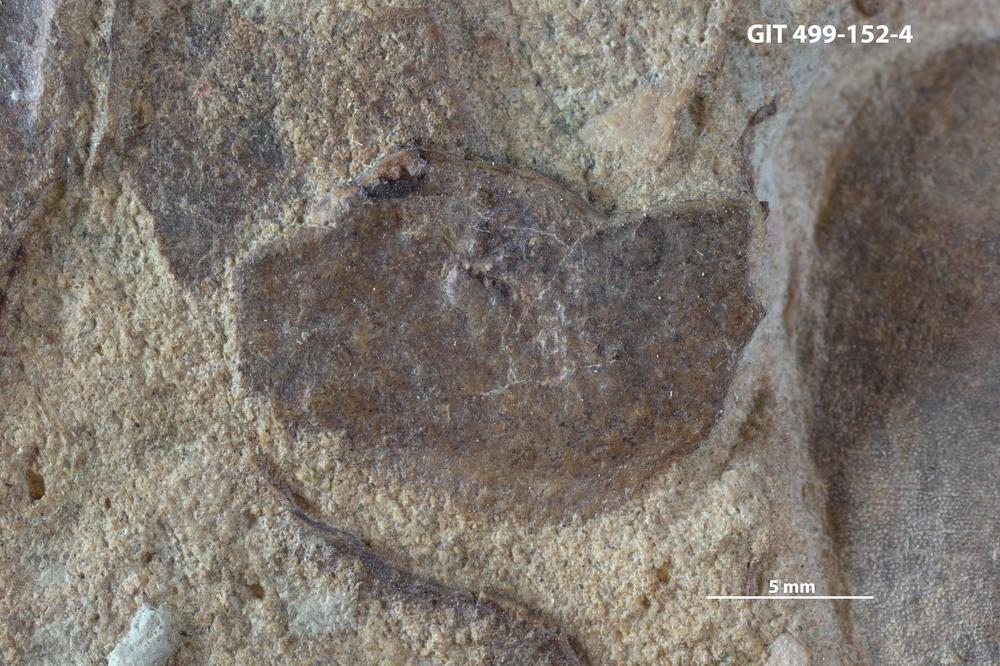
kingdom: Animalia
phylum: Chordata
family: Holoptychiidae
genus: Glyptolepis
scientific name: Glyptolepis
